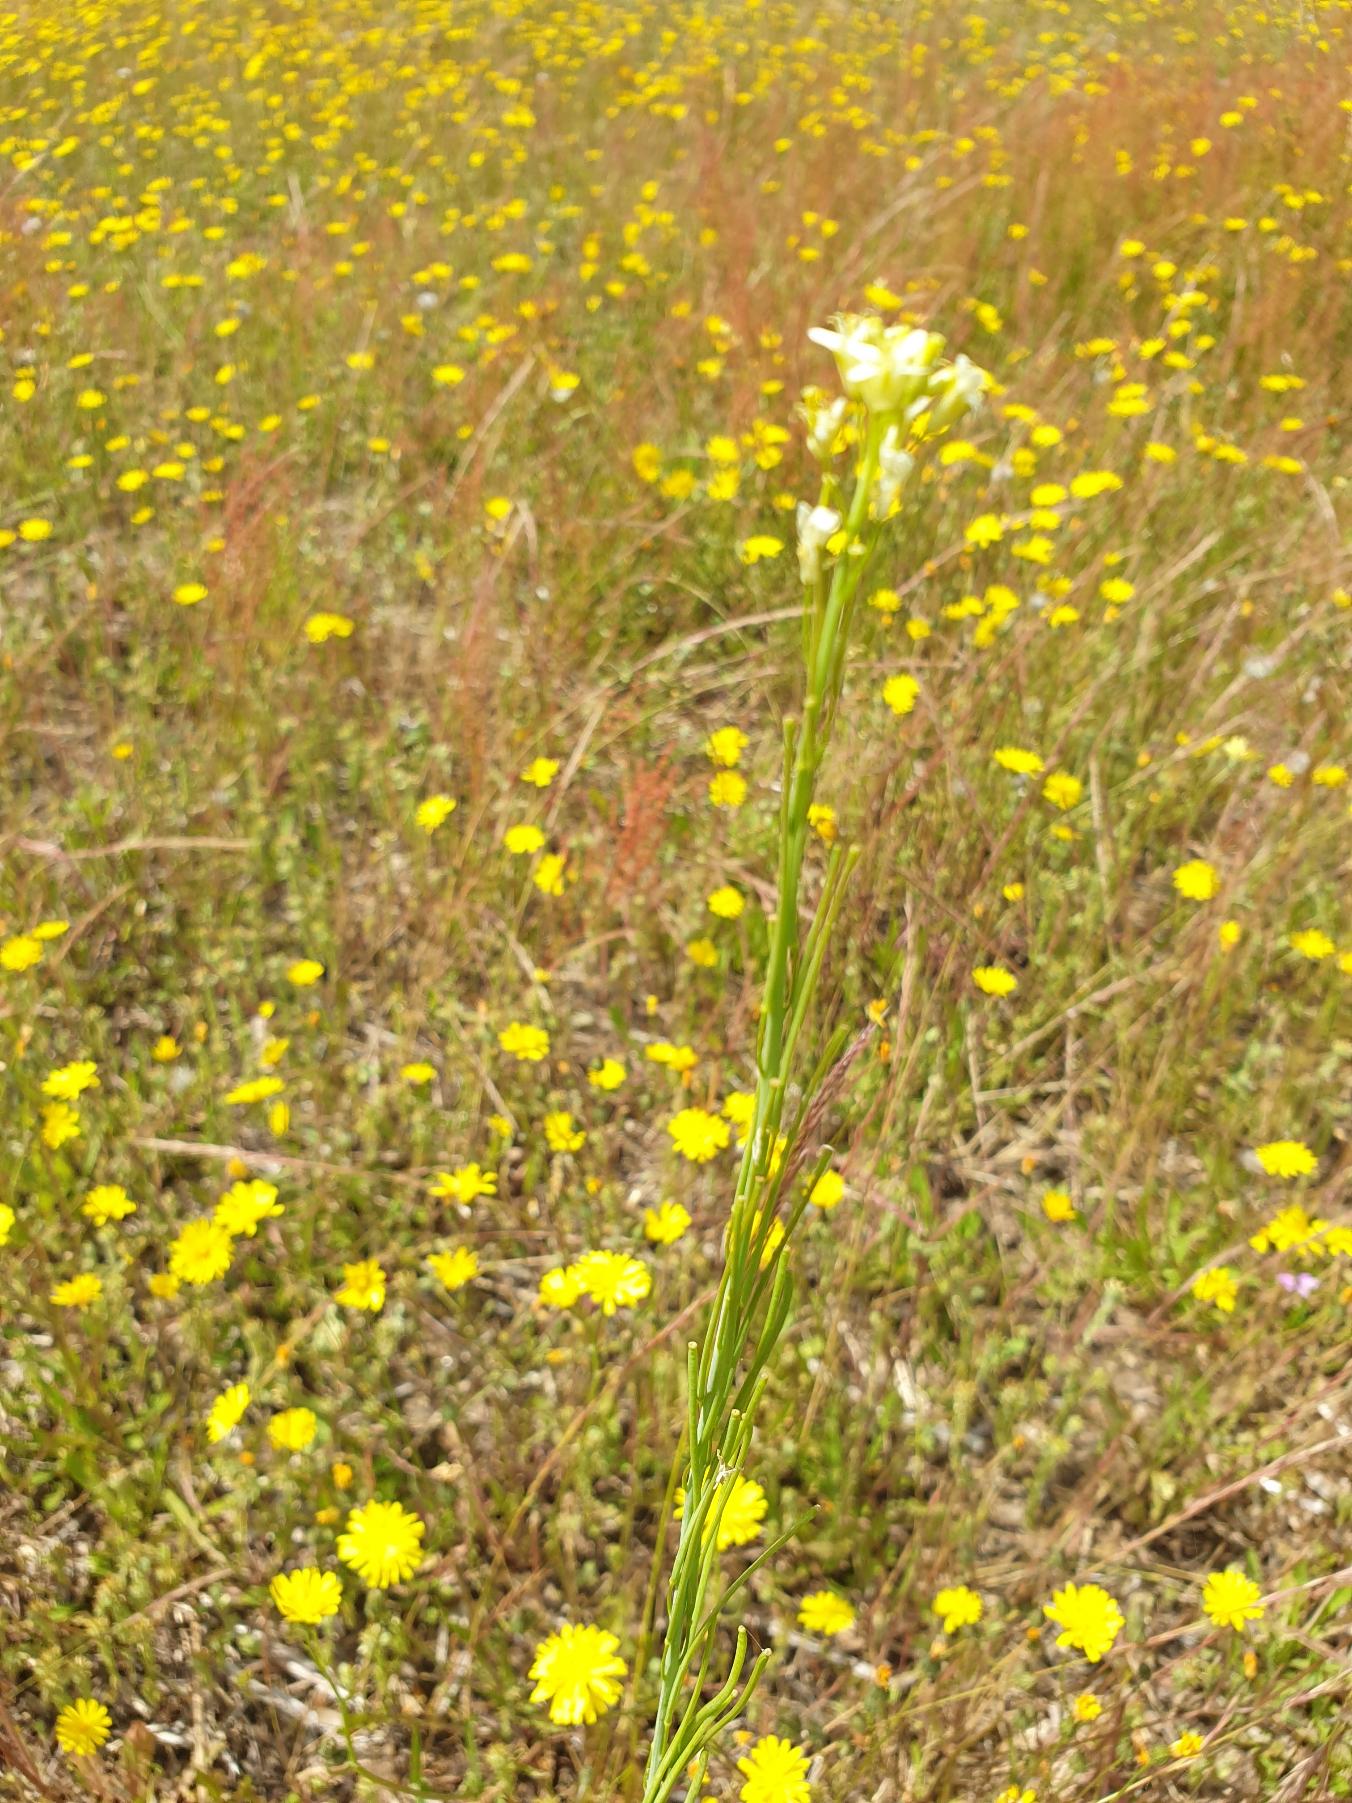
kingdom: Plantae
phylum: Tracheophyta
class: Magnoliopsida
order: Brassicales
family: Brassicaceae
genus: Turritis
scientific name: Turritis glabra
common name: Tårnurt
